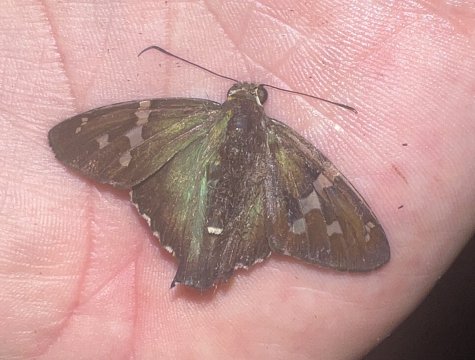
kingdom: Animalia
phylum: Arthropoda
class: Insecta
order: Lepidoptera
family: Hesperiidae
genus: Urbanus
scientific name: Urbanus
